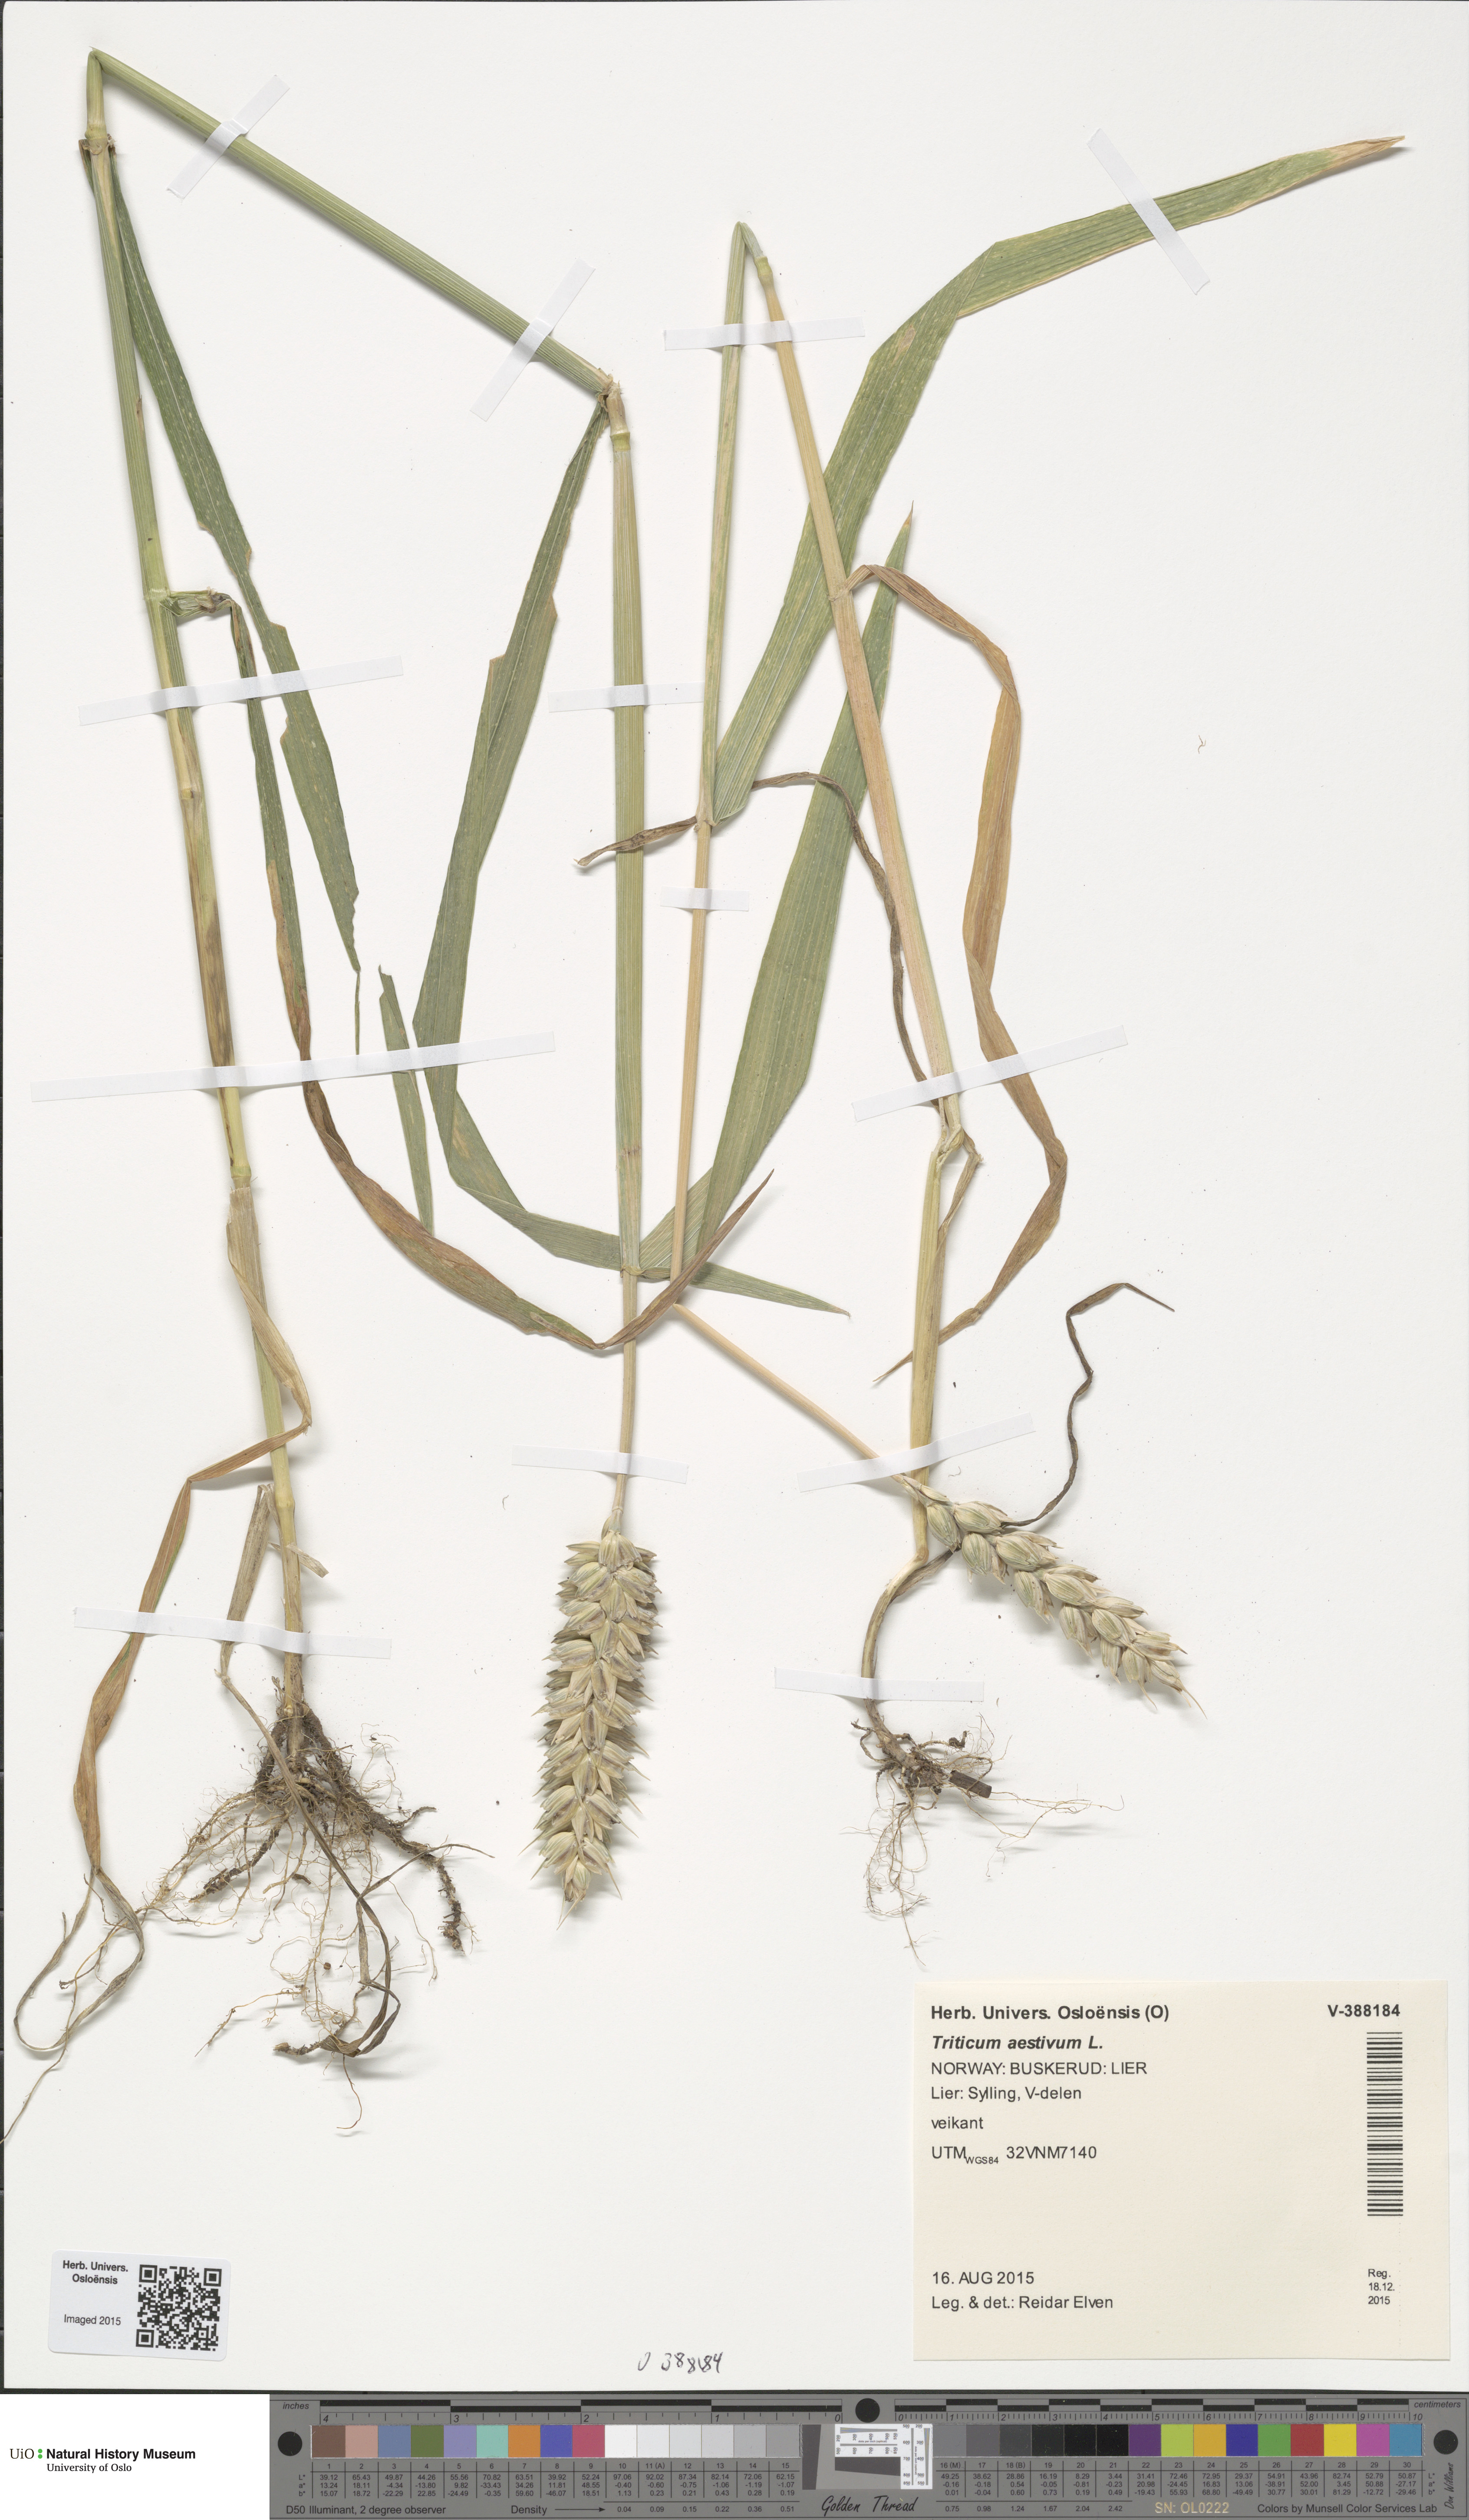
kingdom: Plantae
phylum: Tracheophyta
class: Liliopsida
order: Poales
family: Poaceae
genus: Triticum
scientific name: Triticum aestivum
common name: Common wheat
